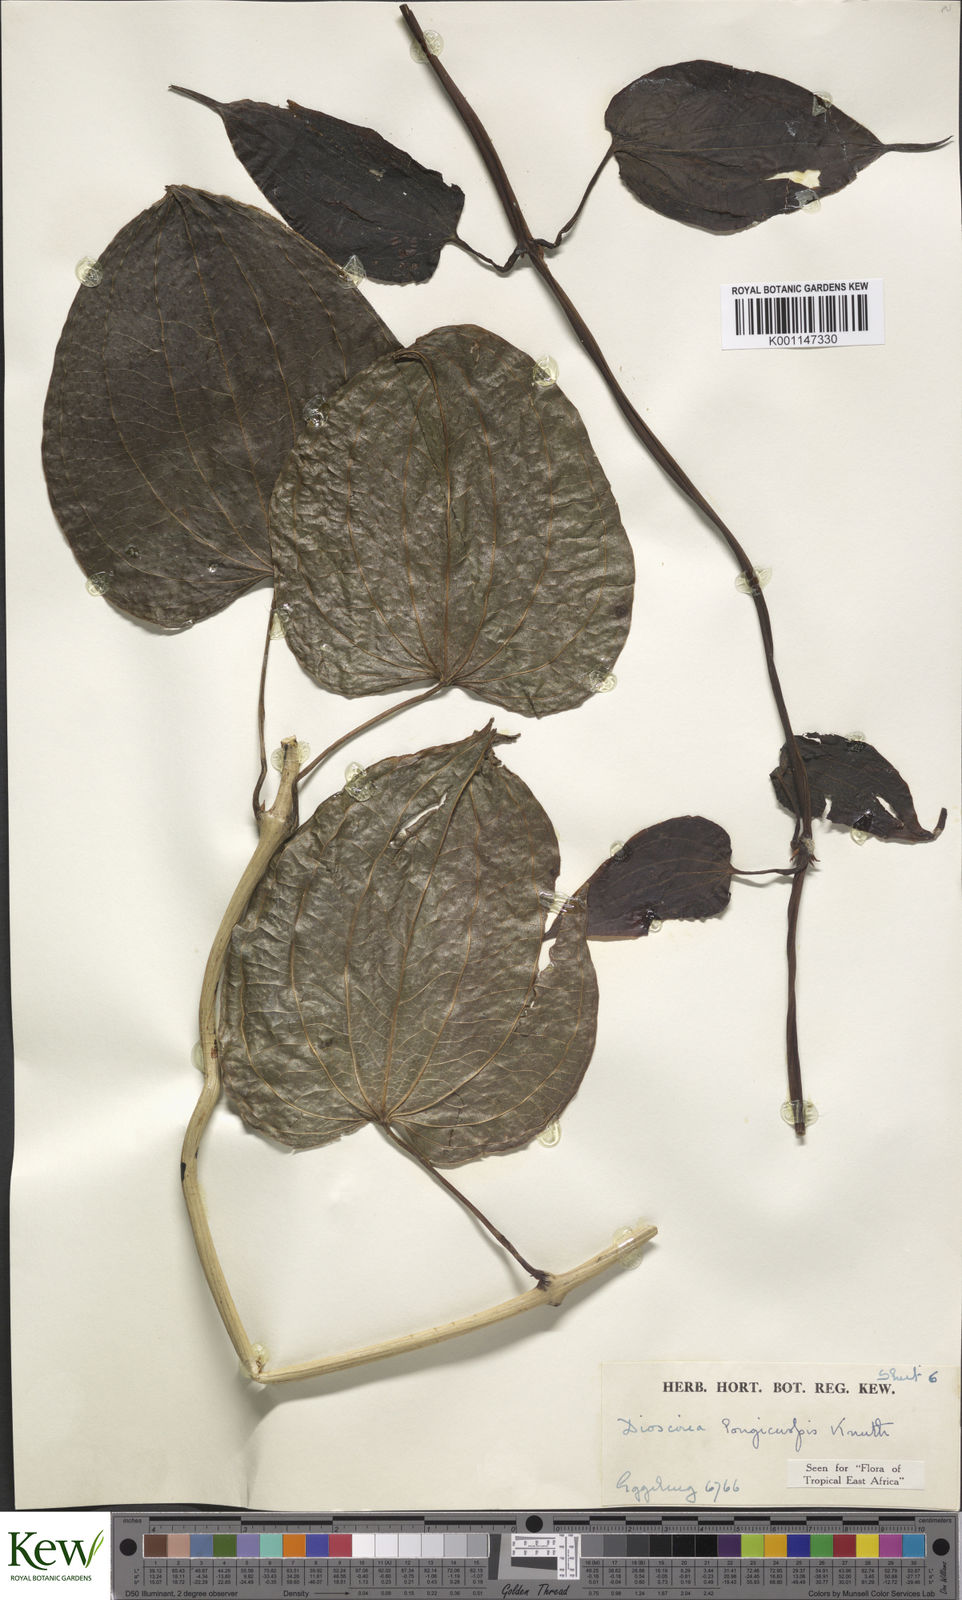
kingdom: Plantae
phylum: Tracheophyta
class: Liliopsida
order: Dioscoreales
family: Dioscoreaceae
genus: Dioscorea
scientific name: Dioscorea longicuspis
